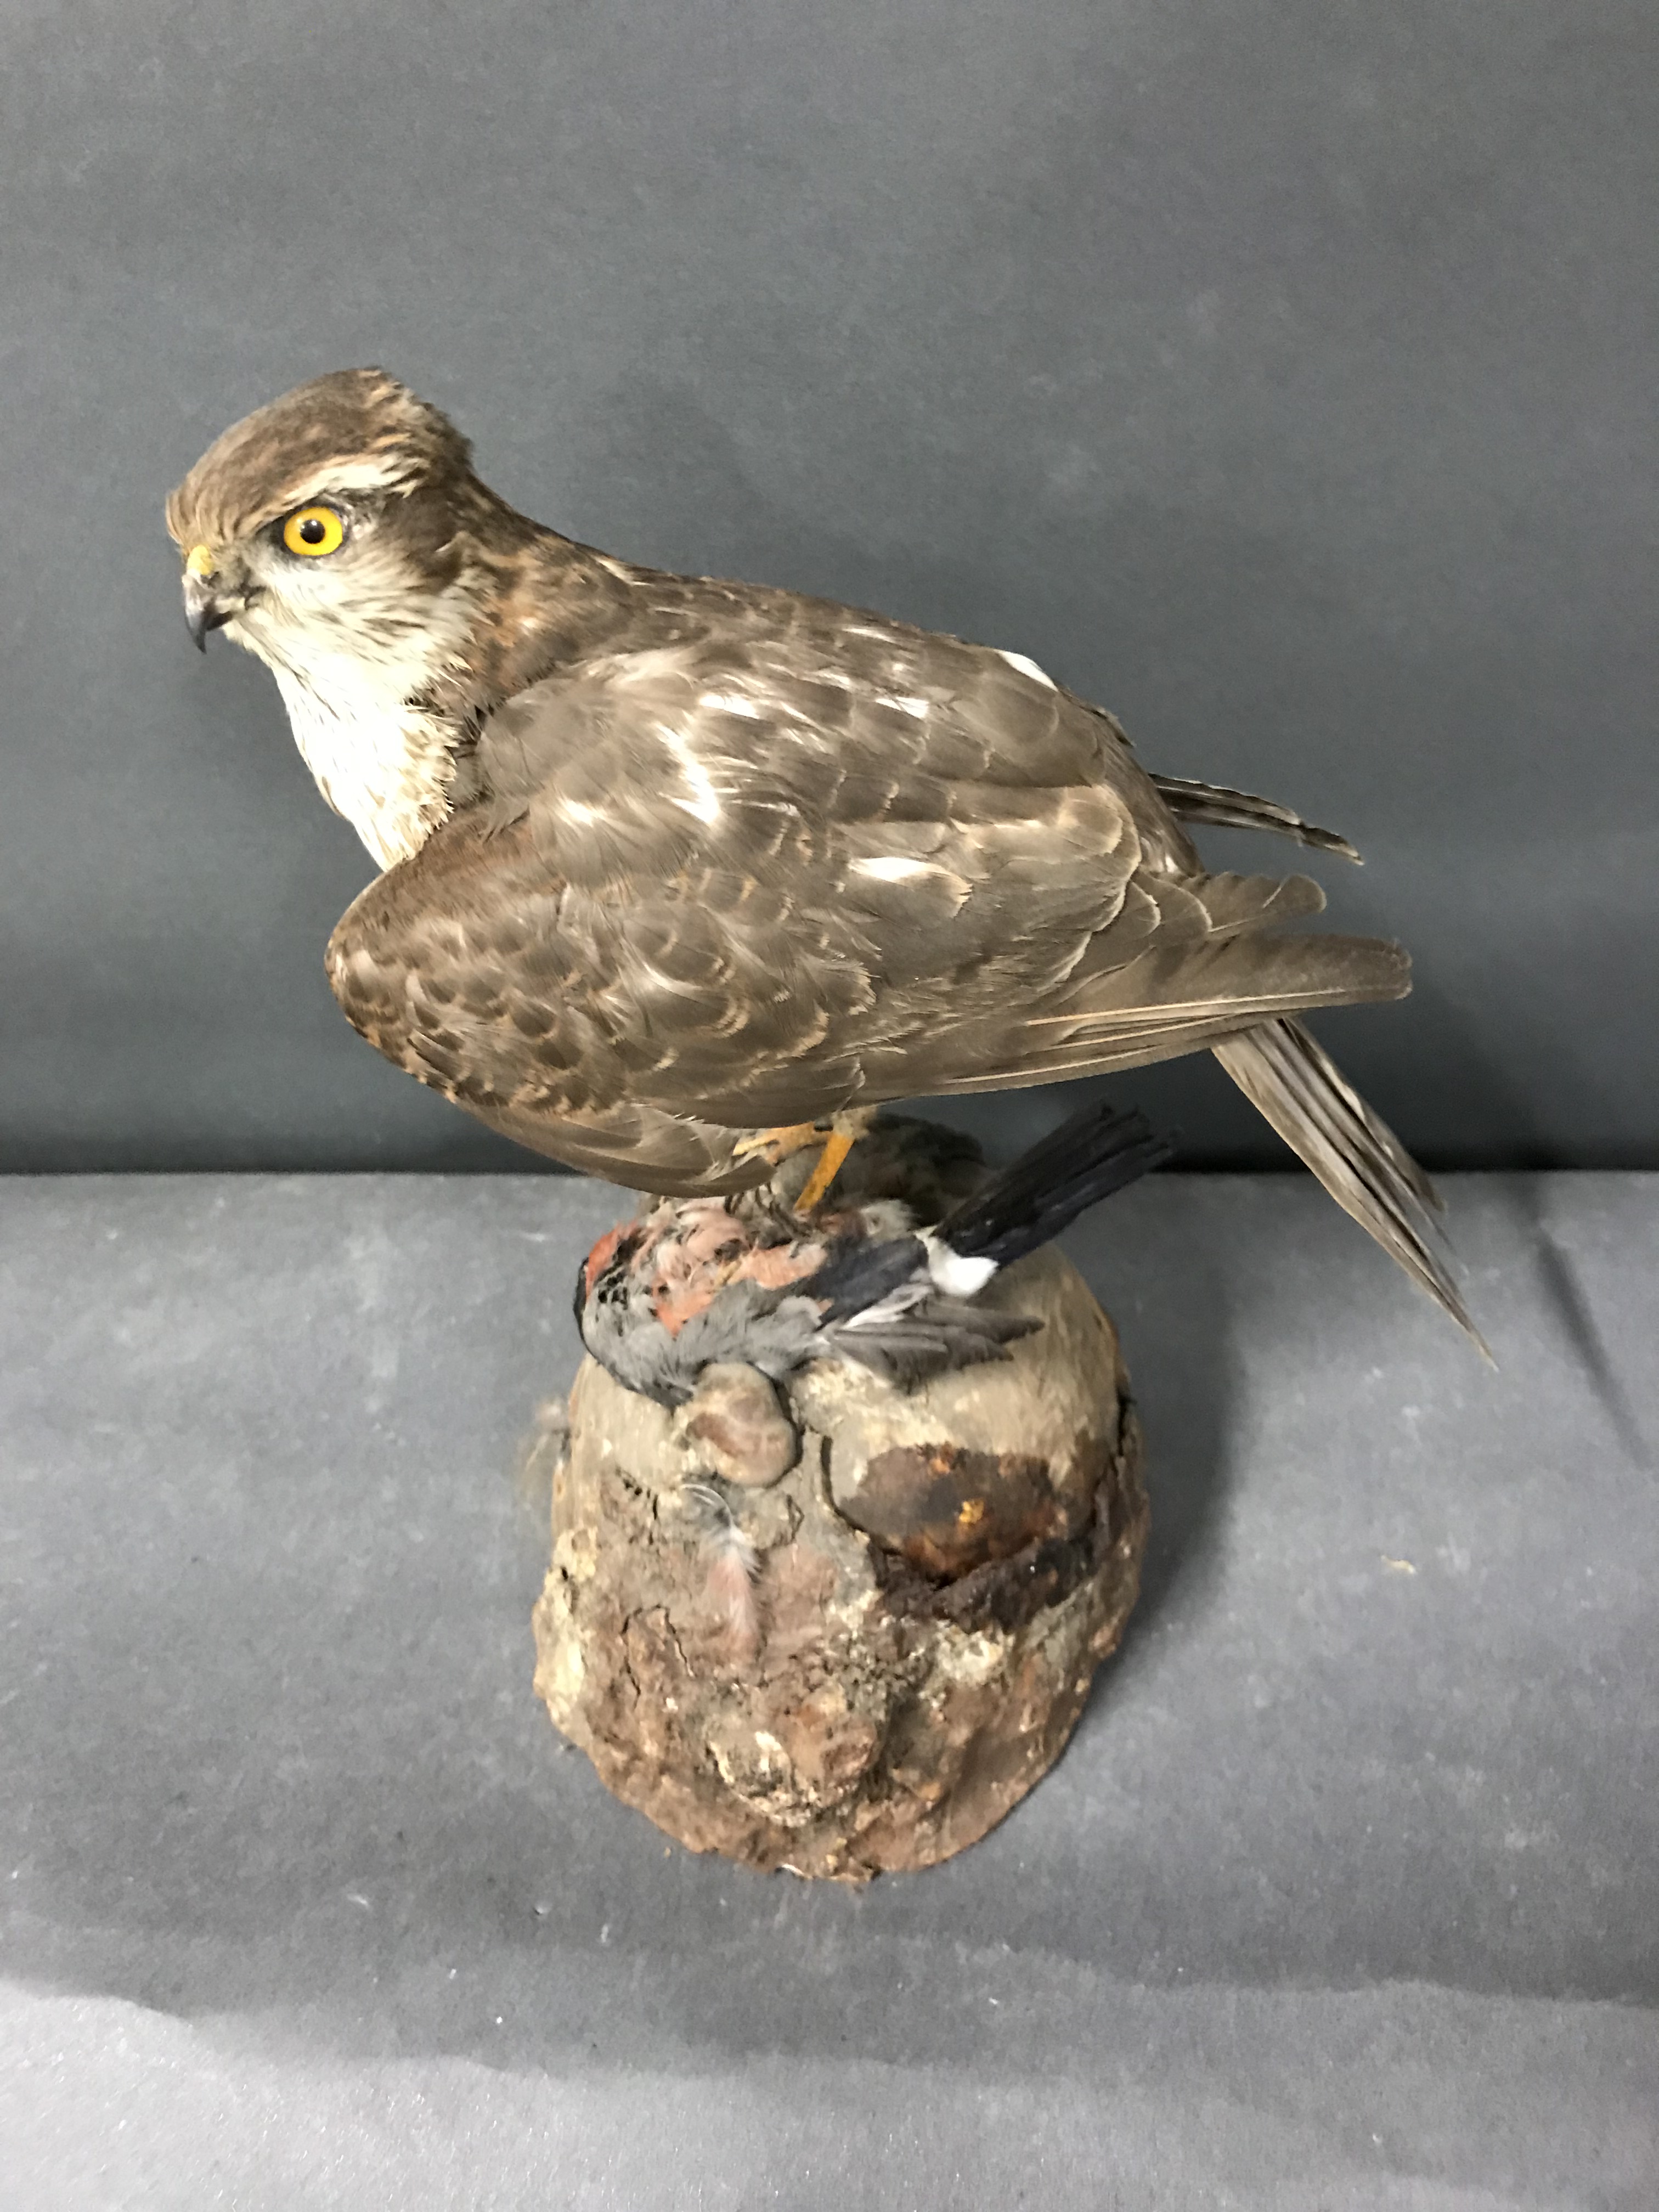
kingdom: Animalia
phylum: Chordata
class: Aves
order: Accipitriformes
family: Accipitridae
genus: Accipiter
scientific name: Accipiter nisus
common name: Eurasian sparrowhawk
